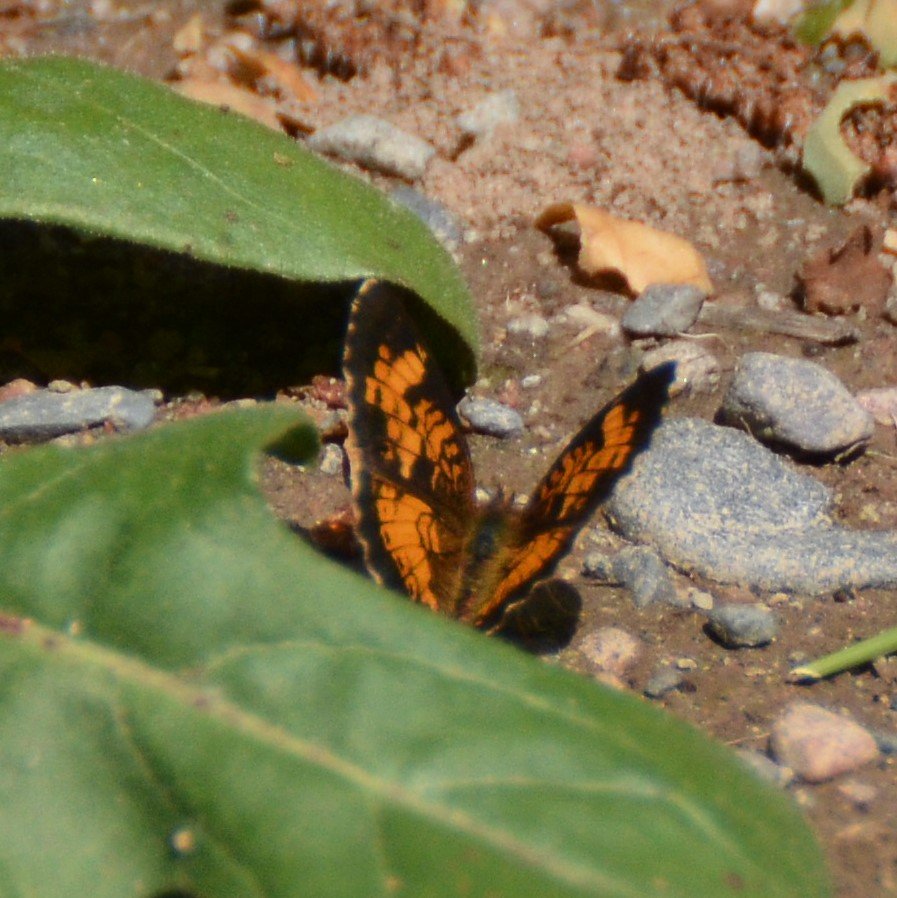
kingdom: Animalia
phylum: Arthropoda
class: Insecta
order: Lepidoptera
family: Nymphalidae
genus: Phyciodes
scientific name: Phyciodes tharos
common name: Northern Crescent
